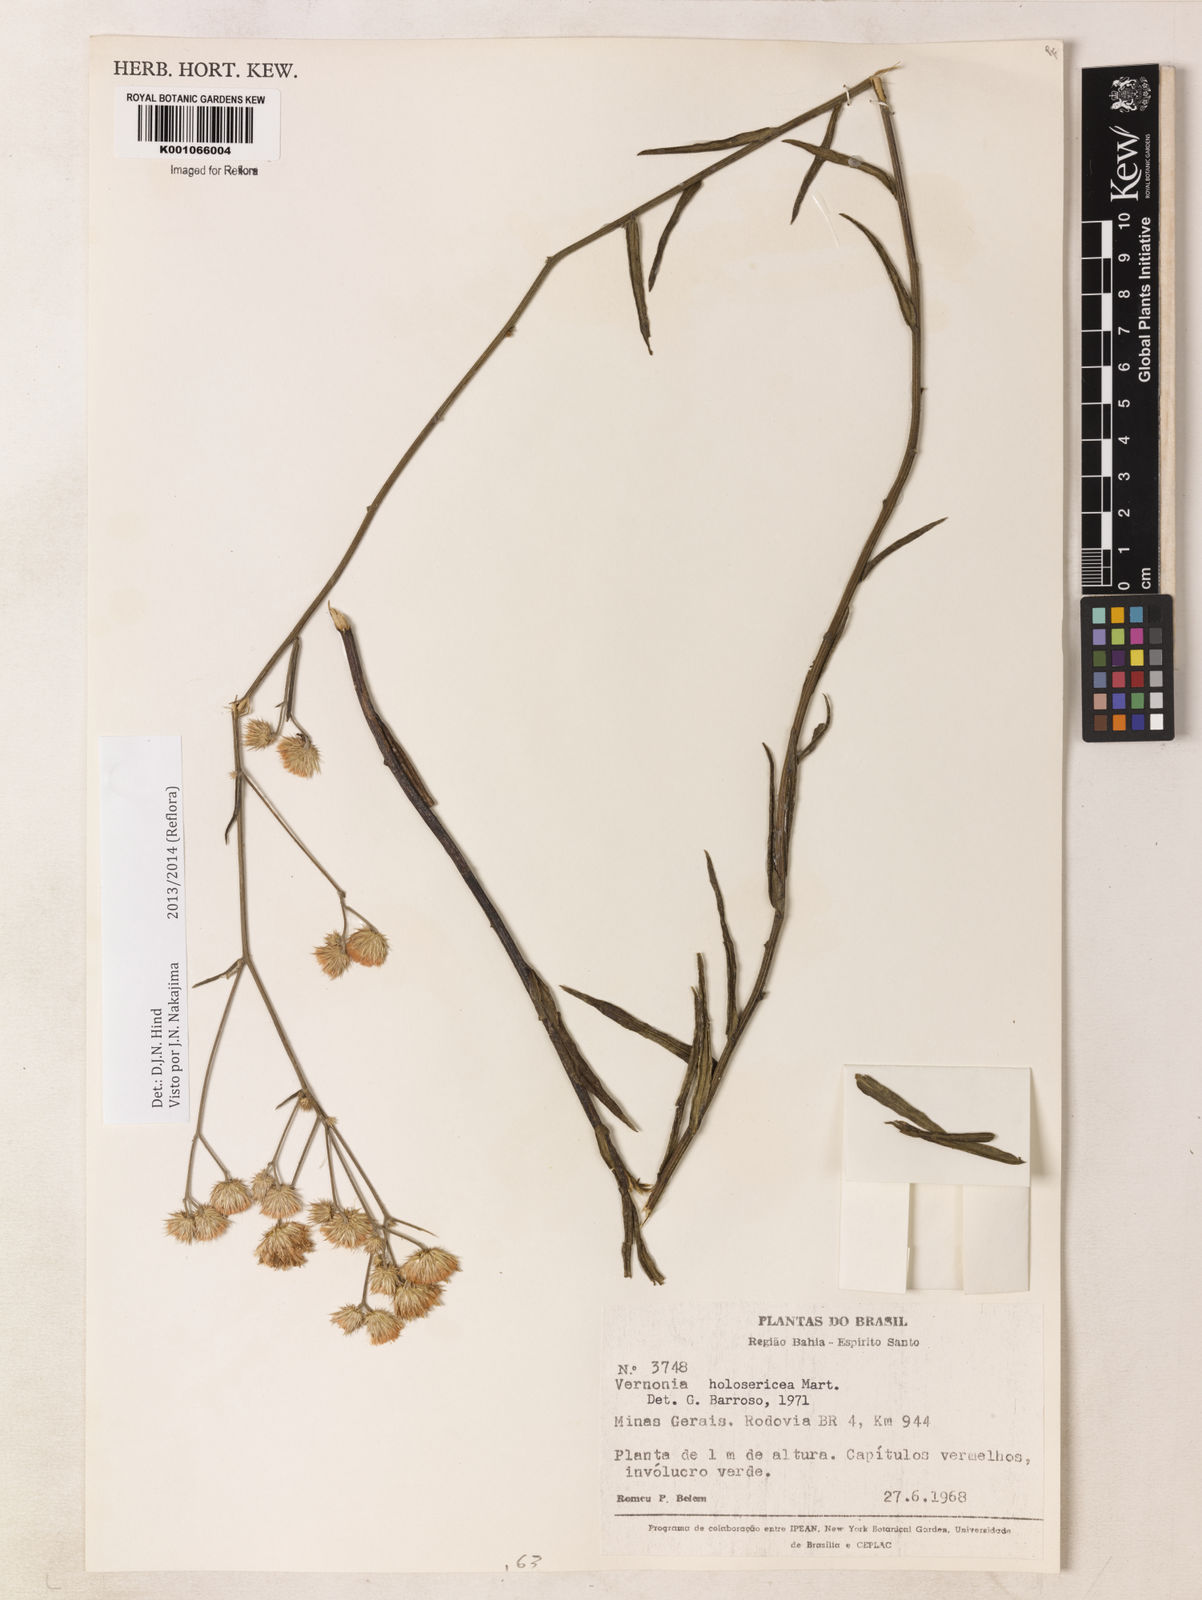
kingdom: Plantae
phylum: Tracheophyta
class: Magnoliopsida
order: Asterales
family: Asteraceae
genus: Echinocoryne
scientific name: Echinocoryne holosericea
